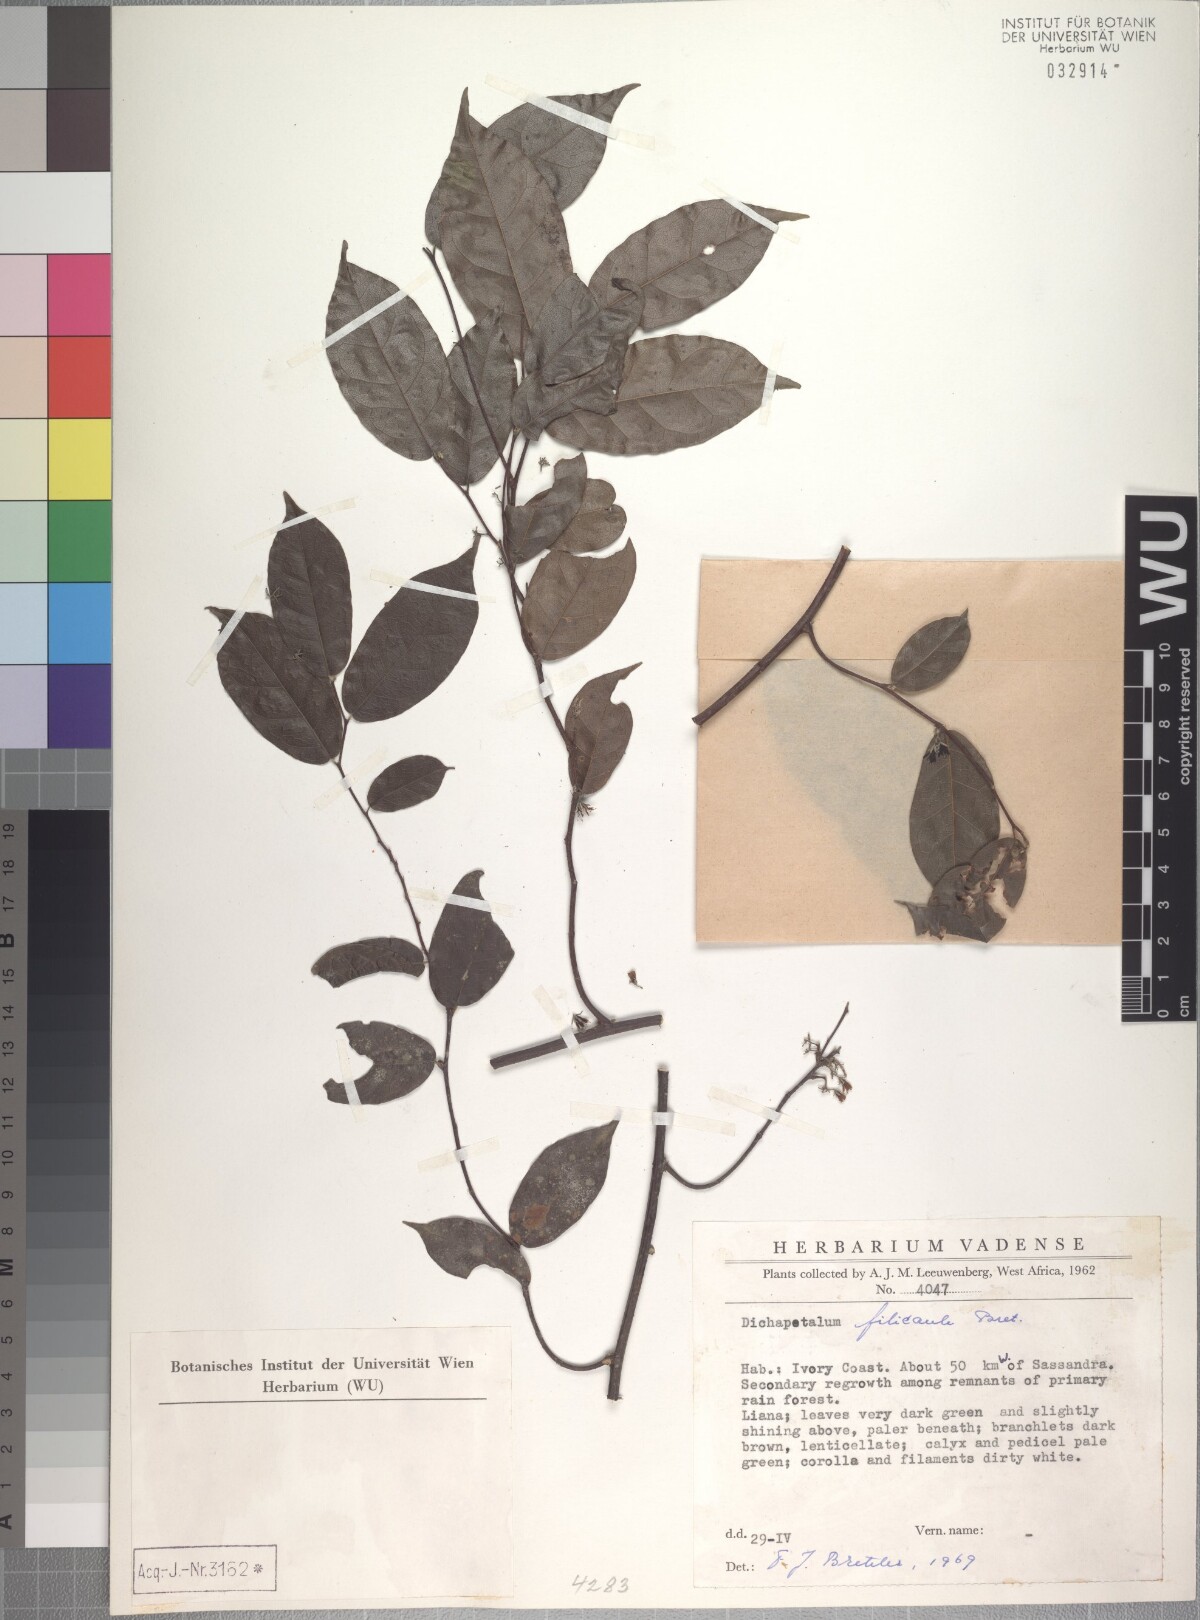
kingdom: Plantae
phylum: Tracheophyta
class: Magnoliopsida
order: Malpighiales
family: Dichapetalaceae
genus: Dichapetalum
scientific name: Dichapetalum filicaule
